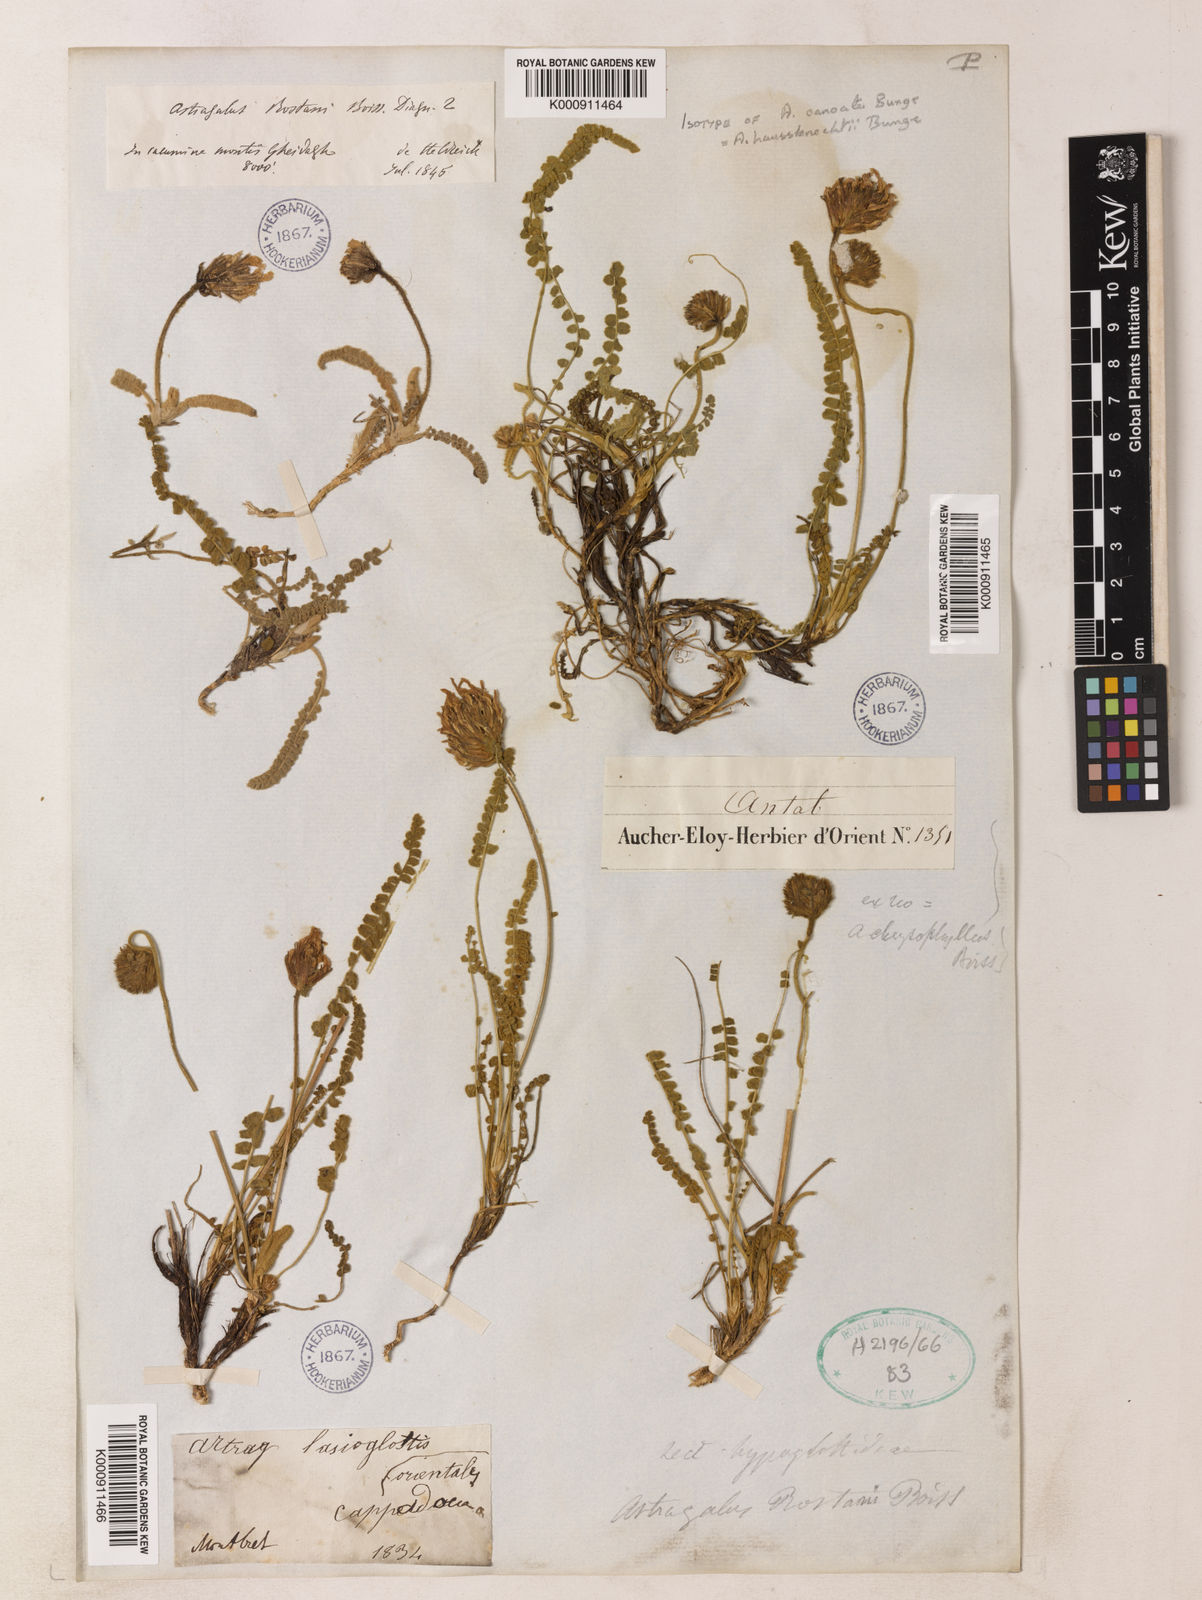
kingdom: Plantae
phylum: Tracheophyta
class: Magnoliopsida
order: Fabales
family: Fabaceae
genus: Astragalus
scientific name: Astragalus densifolius
